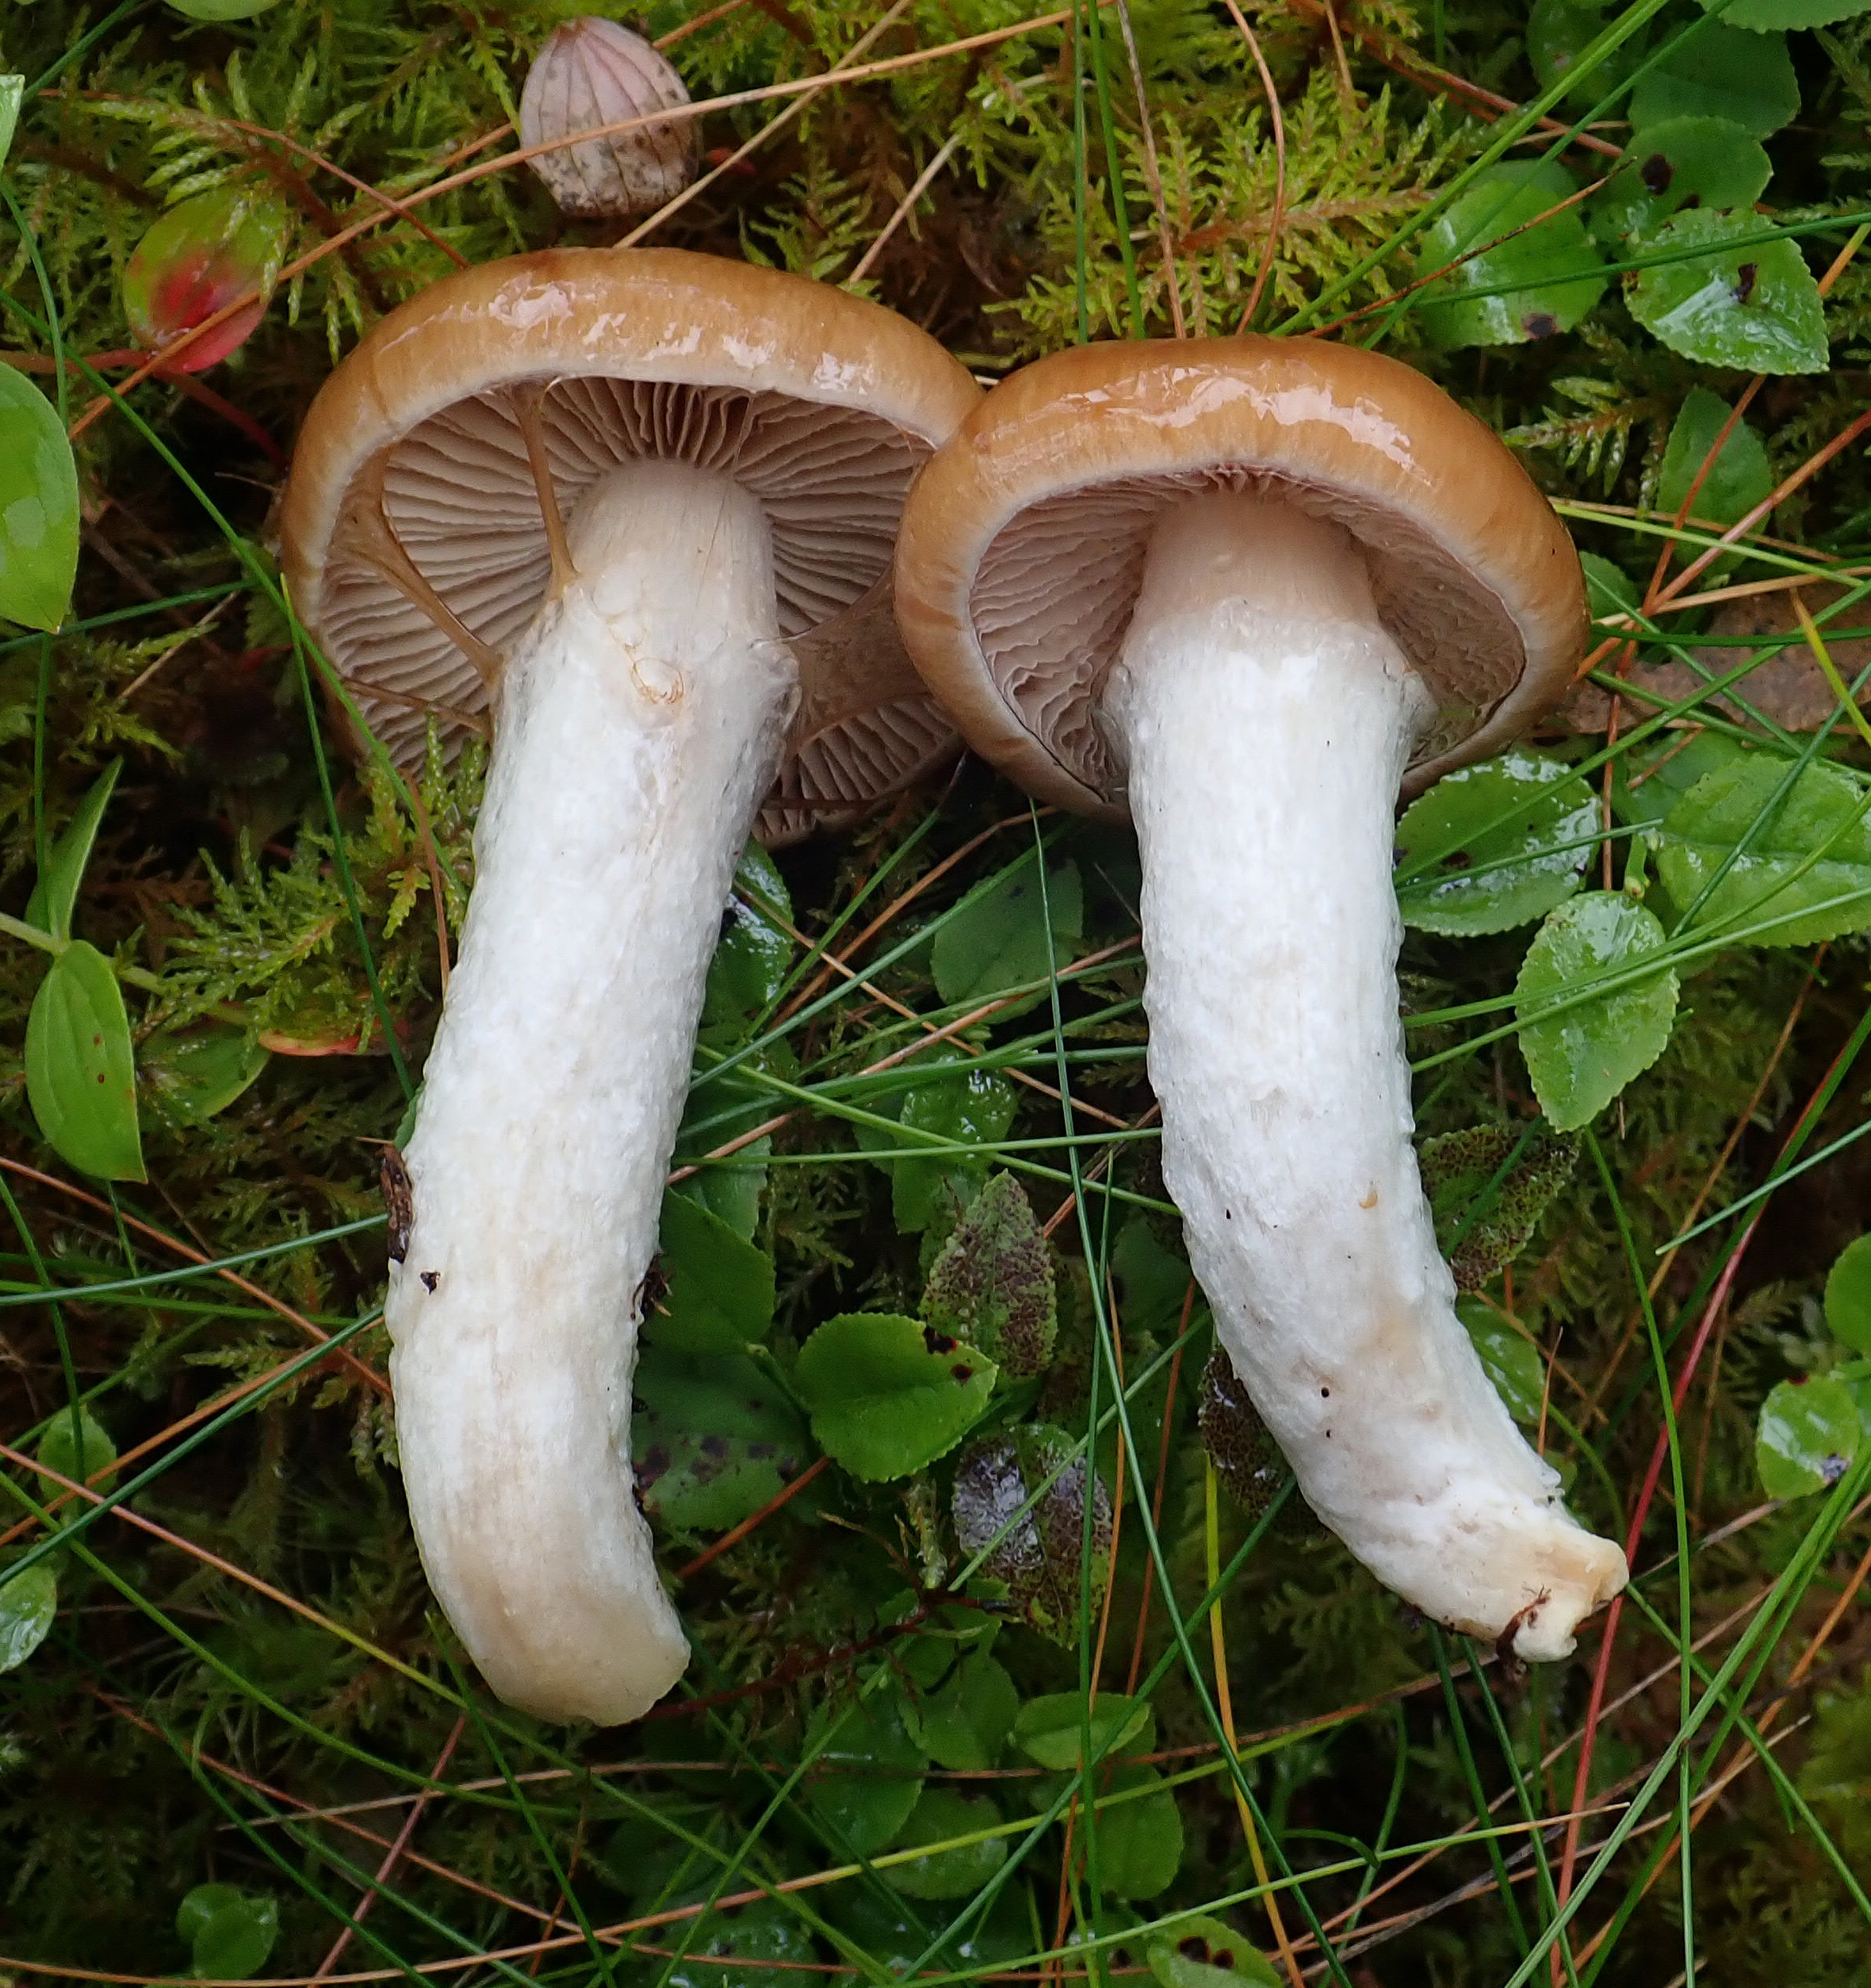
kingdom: Fungi
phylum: Basidiomycota
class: Agaricomycetes
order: Agaricales
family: Cortinariaceae
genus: Cortinarius
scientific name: Cortinarius mucifluus
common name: Slimy webcap
